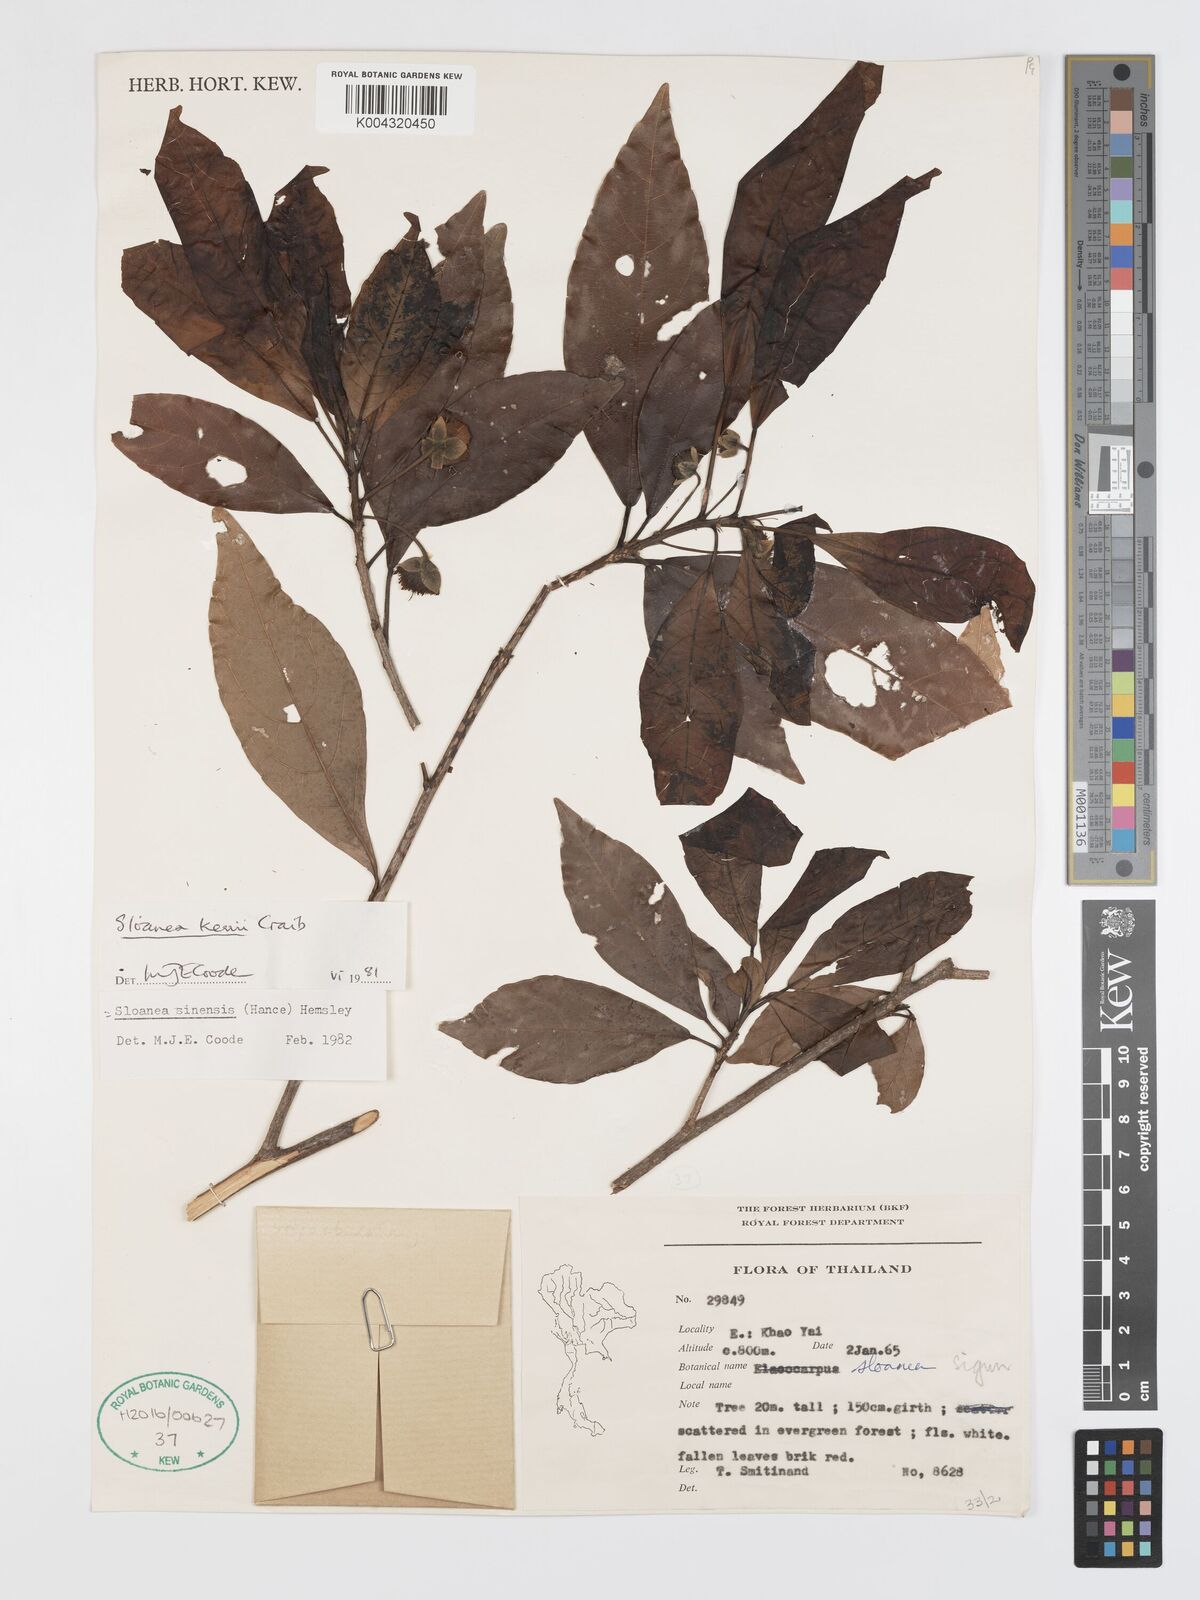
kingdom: Plantae
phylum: Tracheophyta
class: Magnoliopsida
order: Oxalidales
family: Elaeocarpaceae
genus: Sloanea
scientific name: Sloanea sinensis
